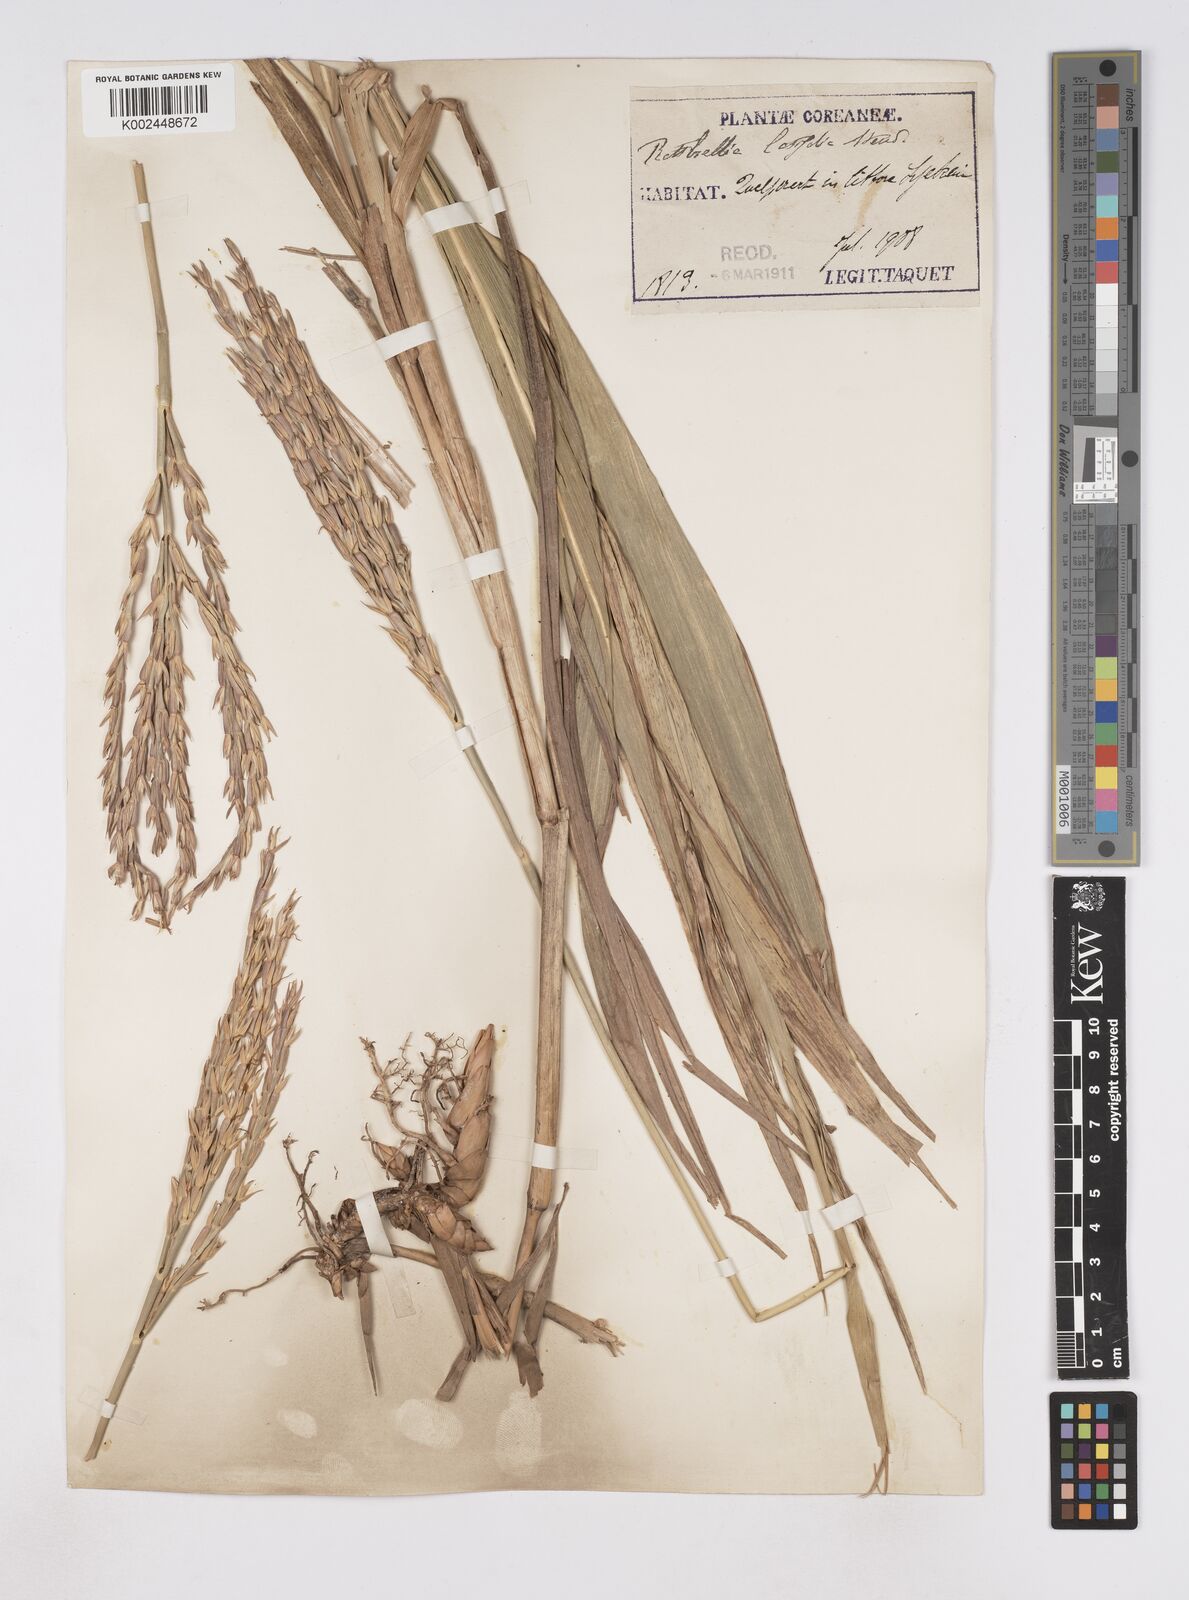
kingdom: Plantae
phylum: Tracheophyta
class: Liliopsida
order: Poales
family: Poaceae
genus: Phacelurus
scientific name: Phacelurus latifolius
